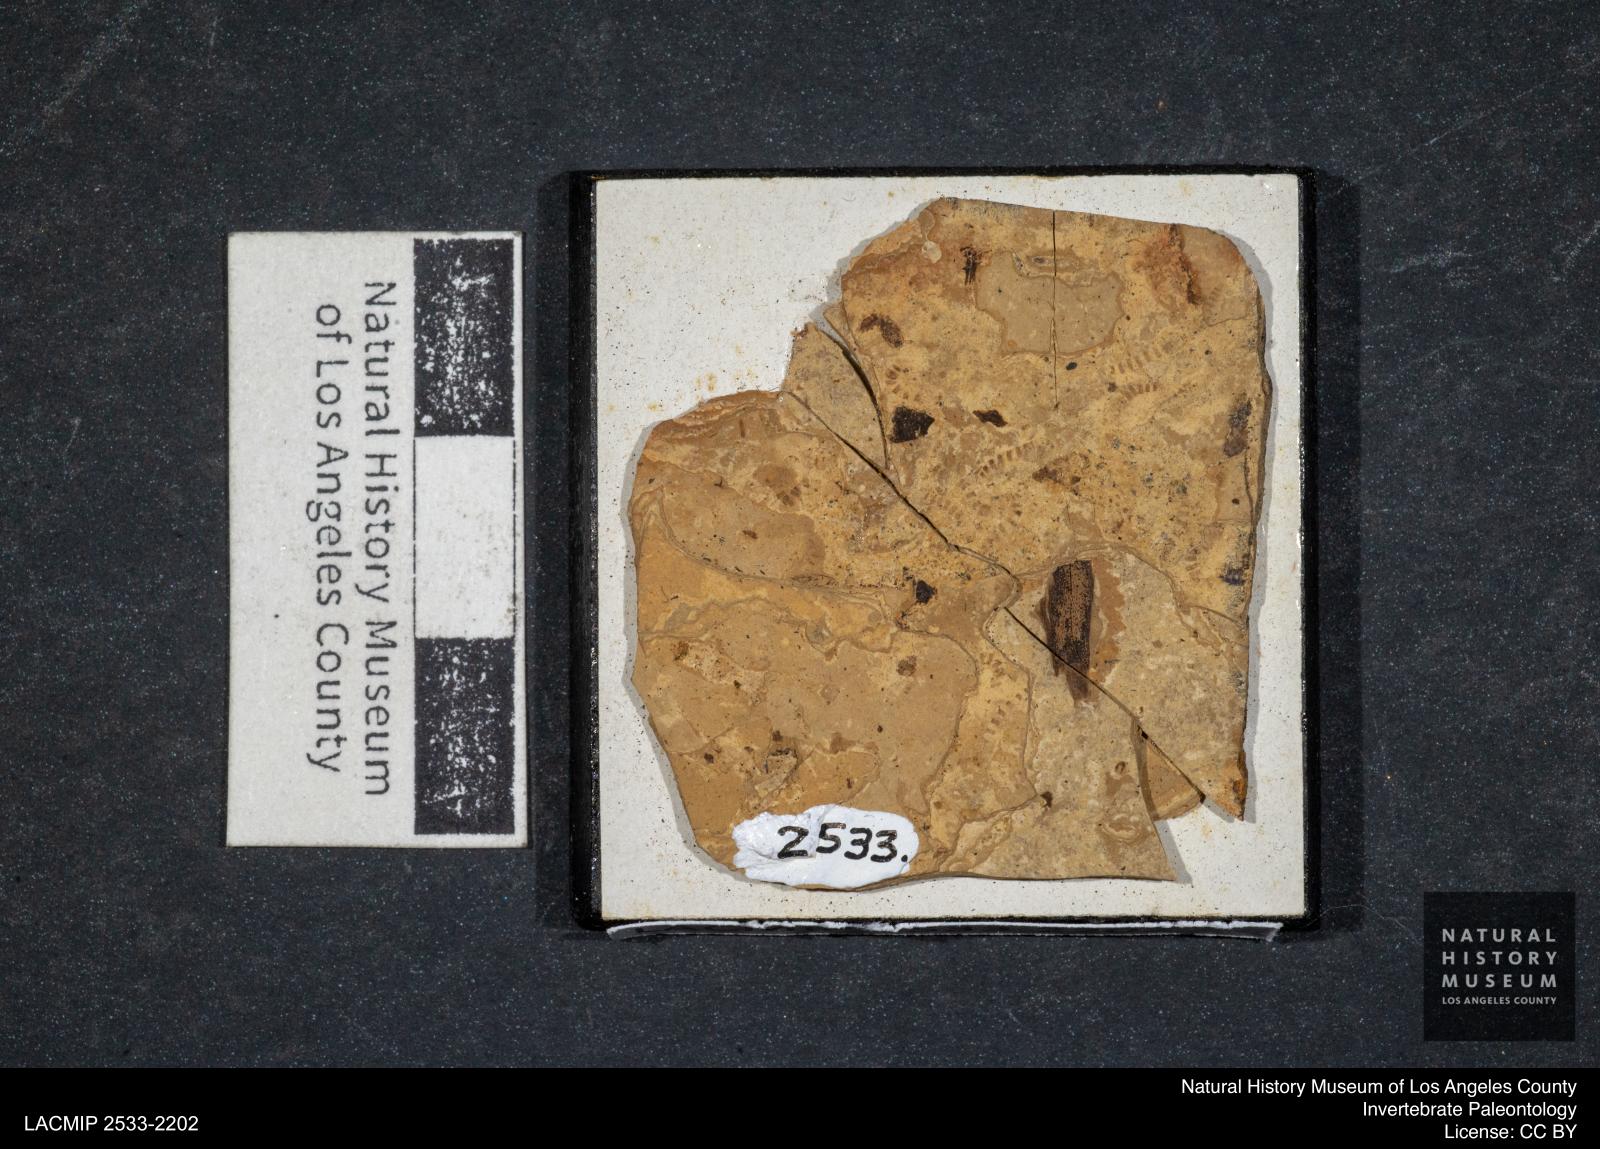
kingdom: Animalia
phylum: Arthropoda
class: Insecta
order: Diptera
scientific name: Diptera
